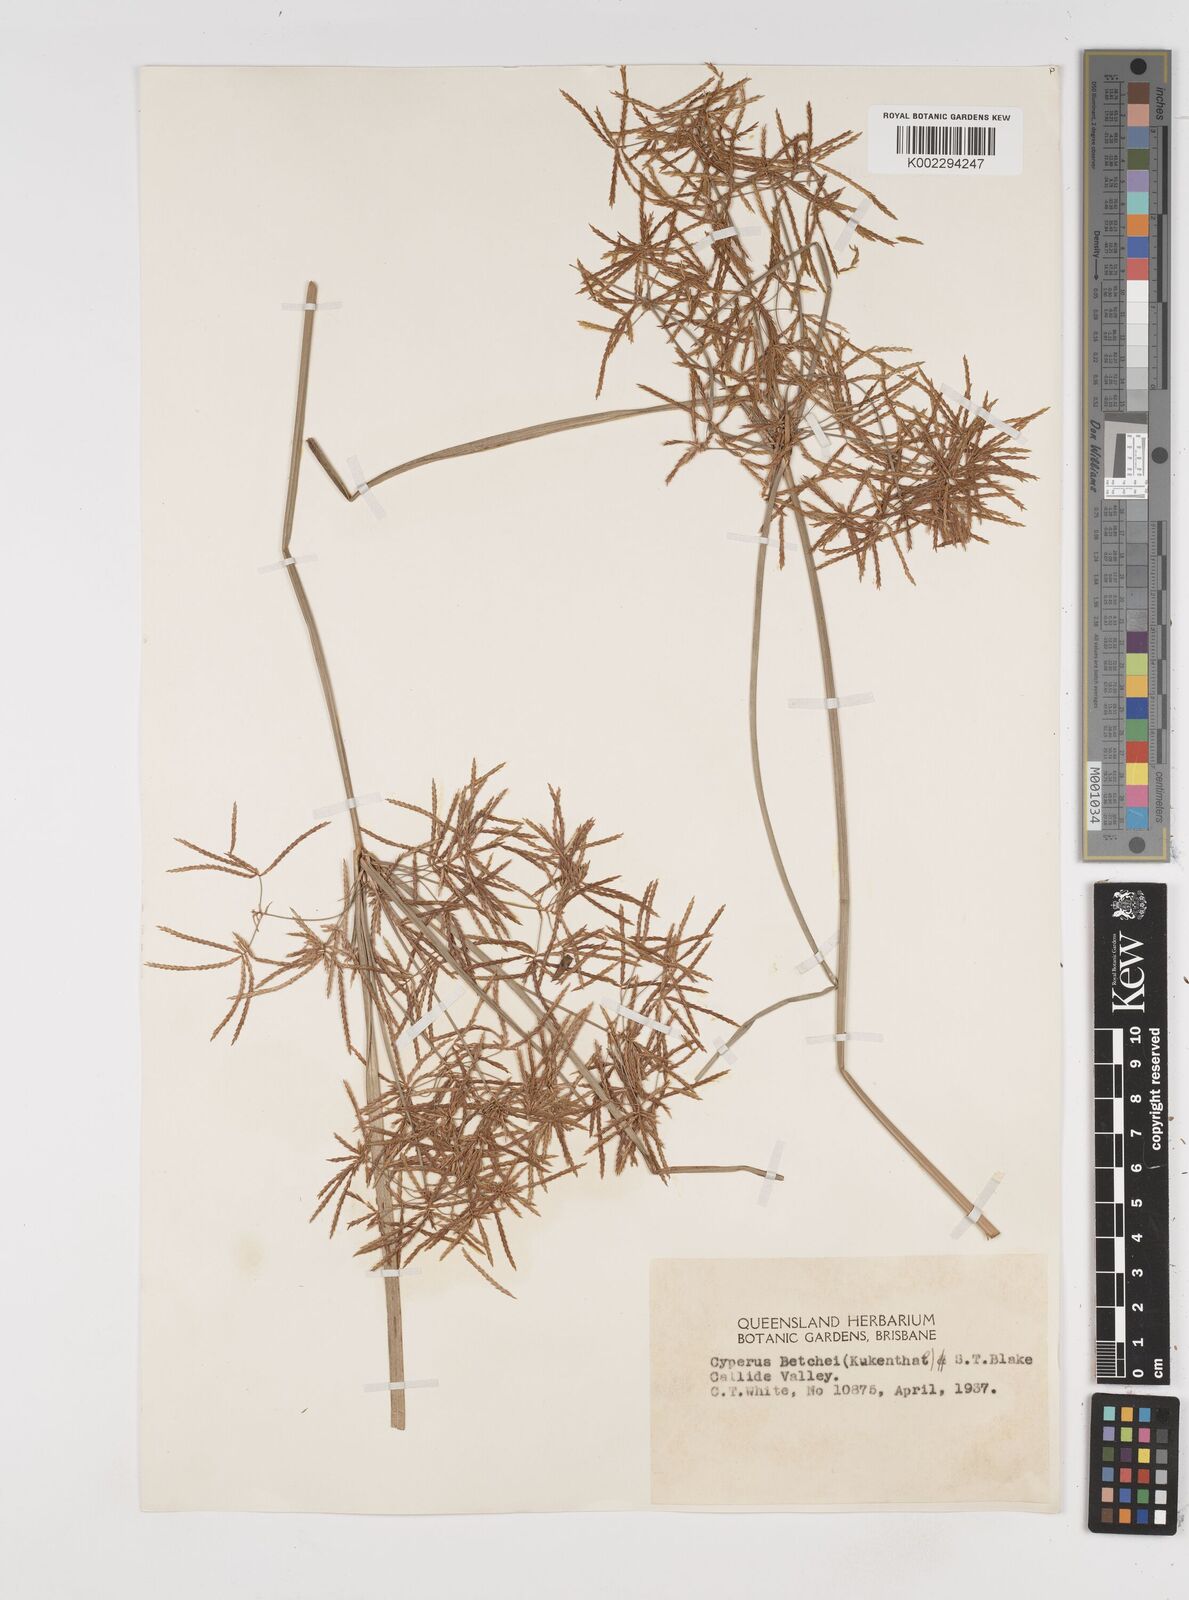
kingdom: Plantae
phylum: Tracheophyta
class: Liliopsida
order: Poales
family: Cyperaceae
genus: Cyperus
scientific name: Cyperus betchei
